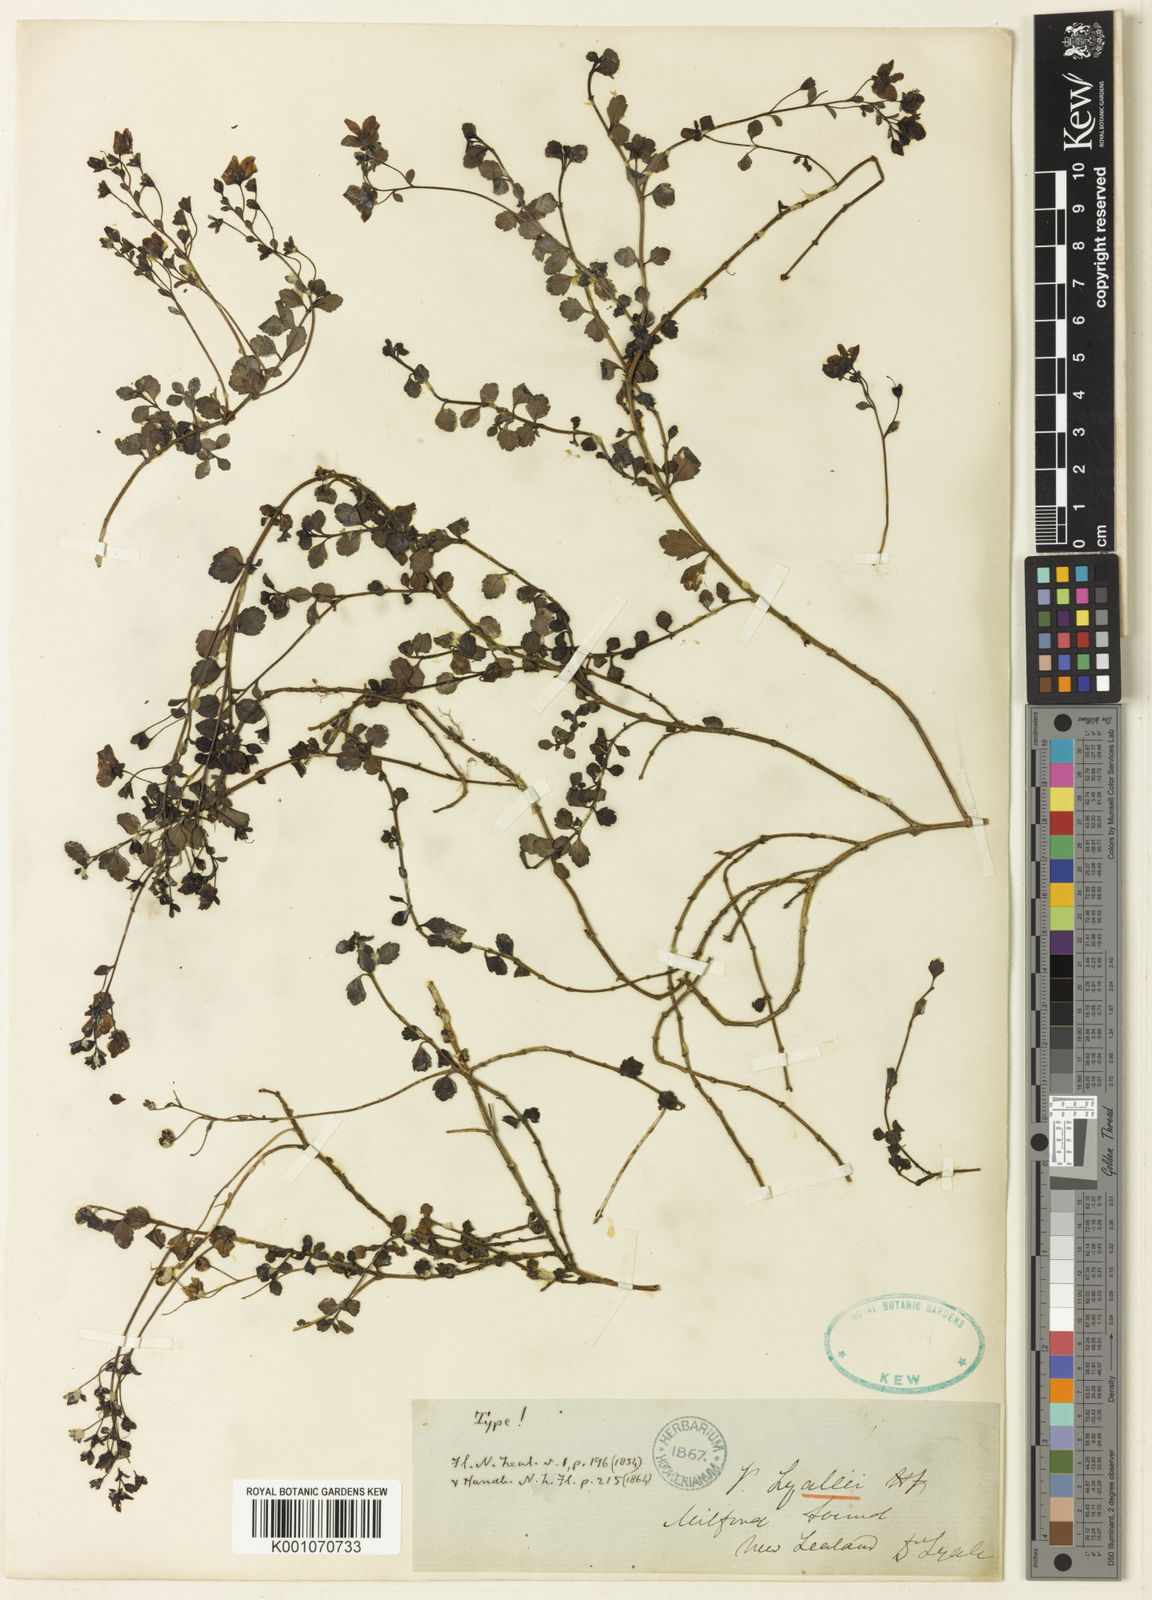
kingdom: Plantae
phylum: Tracheophyta
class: Magnoliopsida
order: Lamiales
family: Plantaginaceae
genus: Veronica
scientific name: Veronica lyallii
